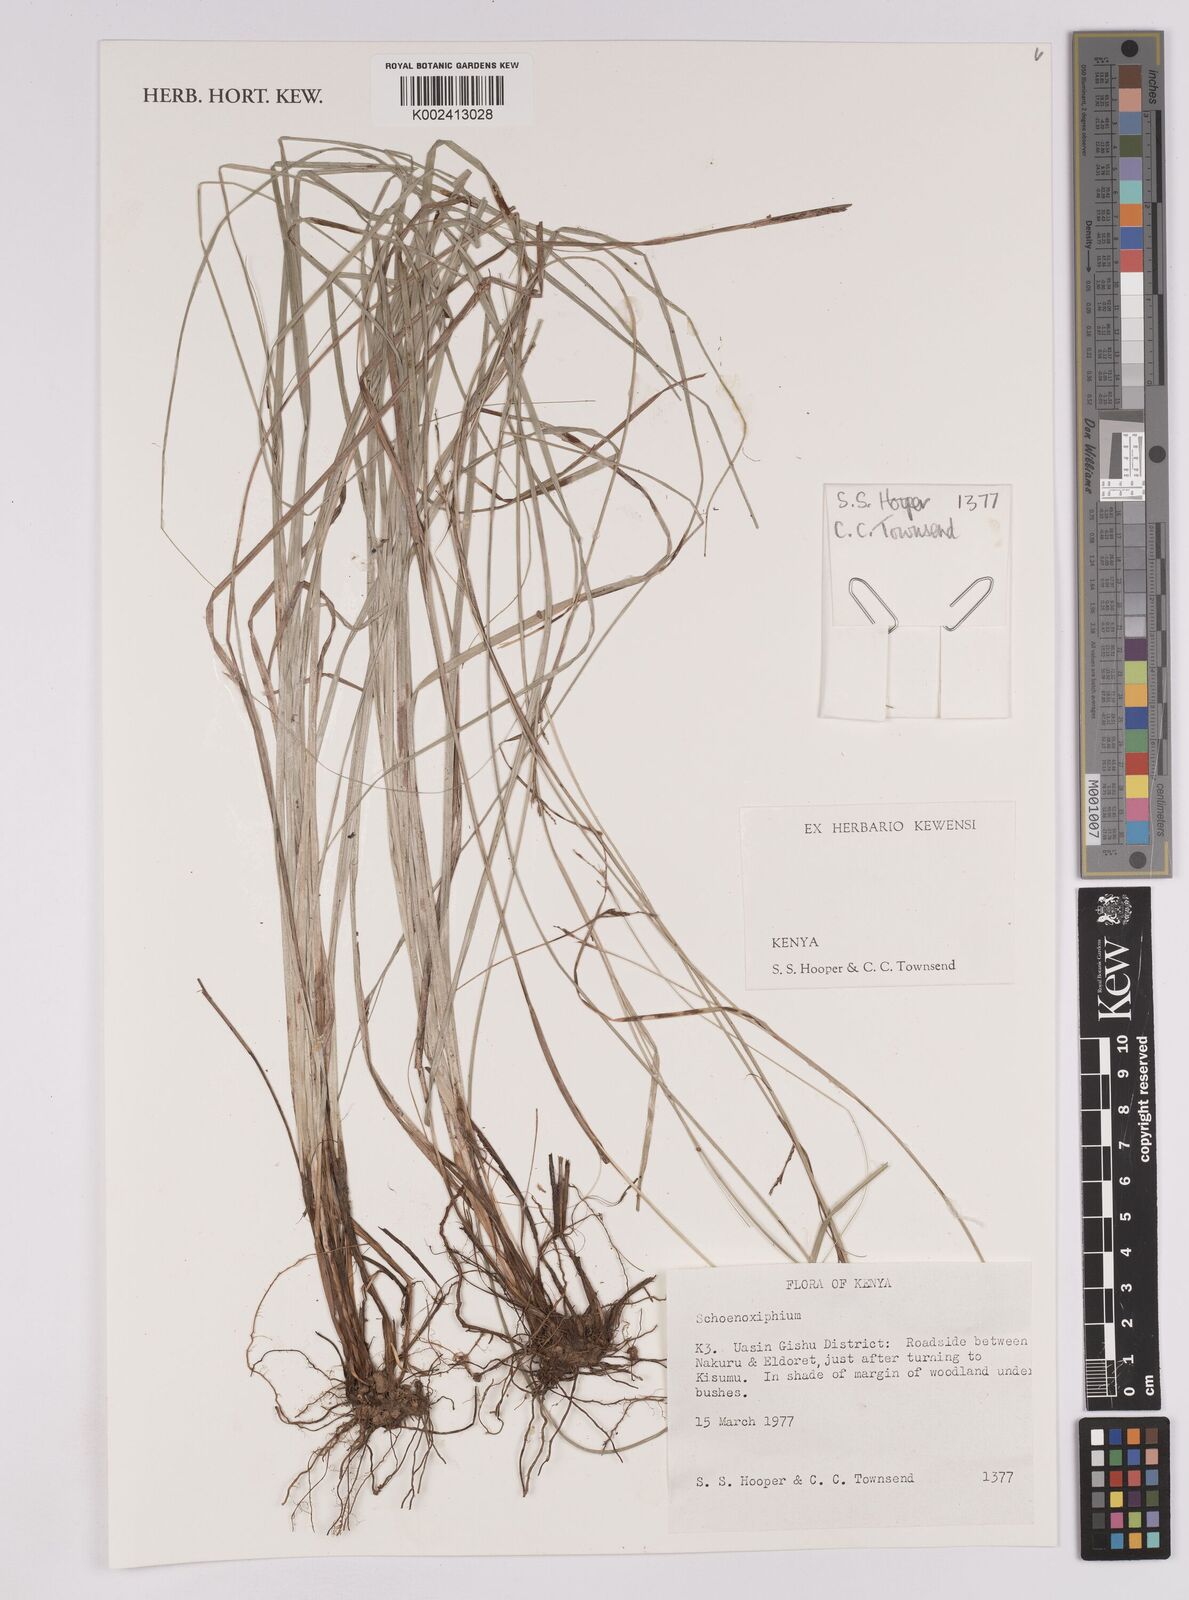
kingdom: Plantae
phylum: Tracheophyta
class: Liliopsida
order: Poales
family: Cyperaceae
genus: Carex
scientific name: Carex
